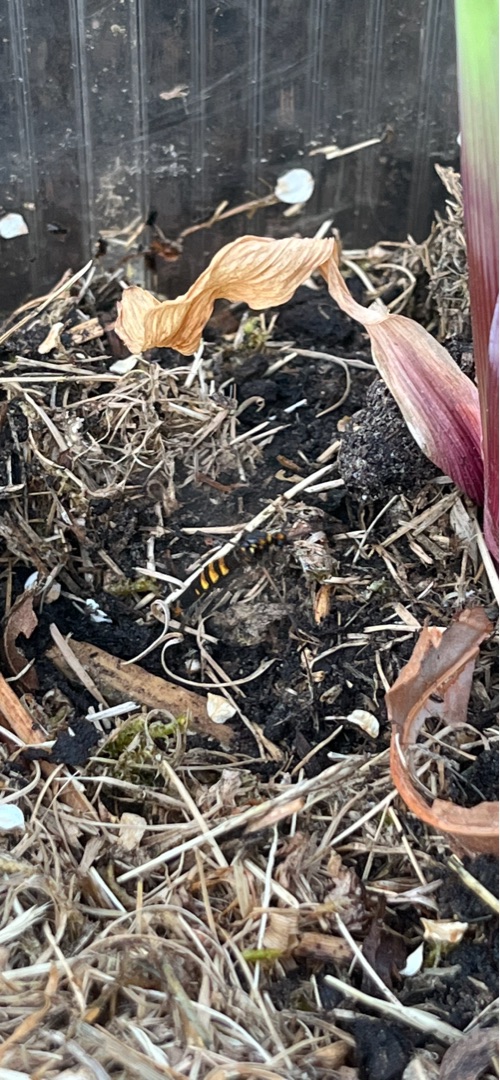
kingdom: Animalia
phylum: Arthropoda
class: Insecta
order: Diptera
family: Tipulidae
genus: Nephrotoma
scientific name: Nephrotoma crocata
